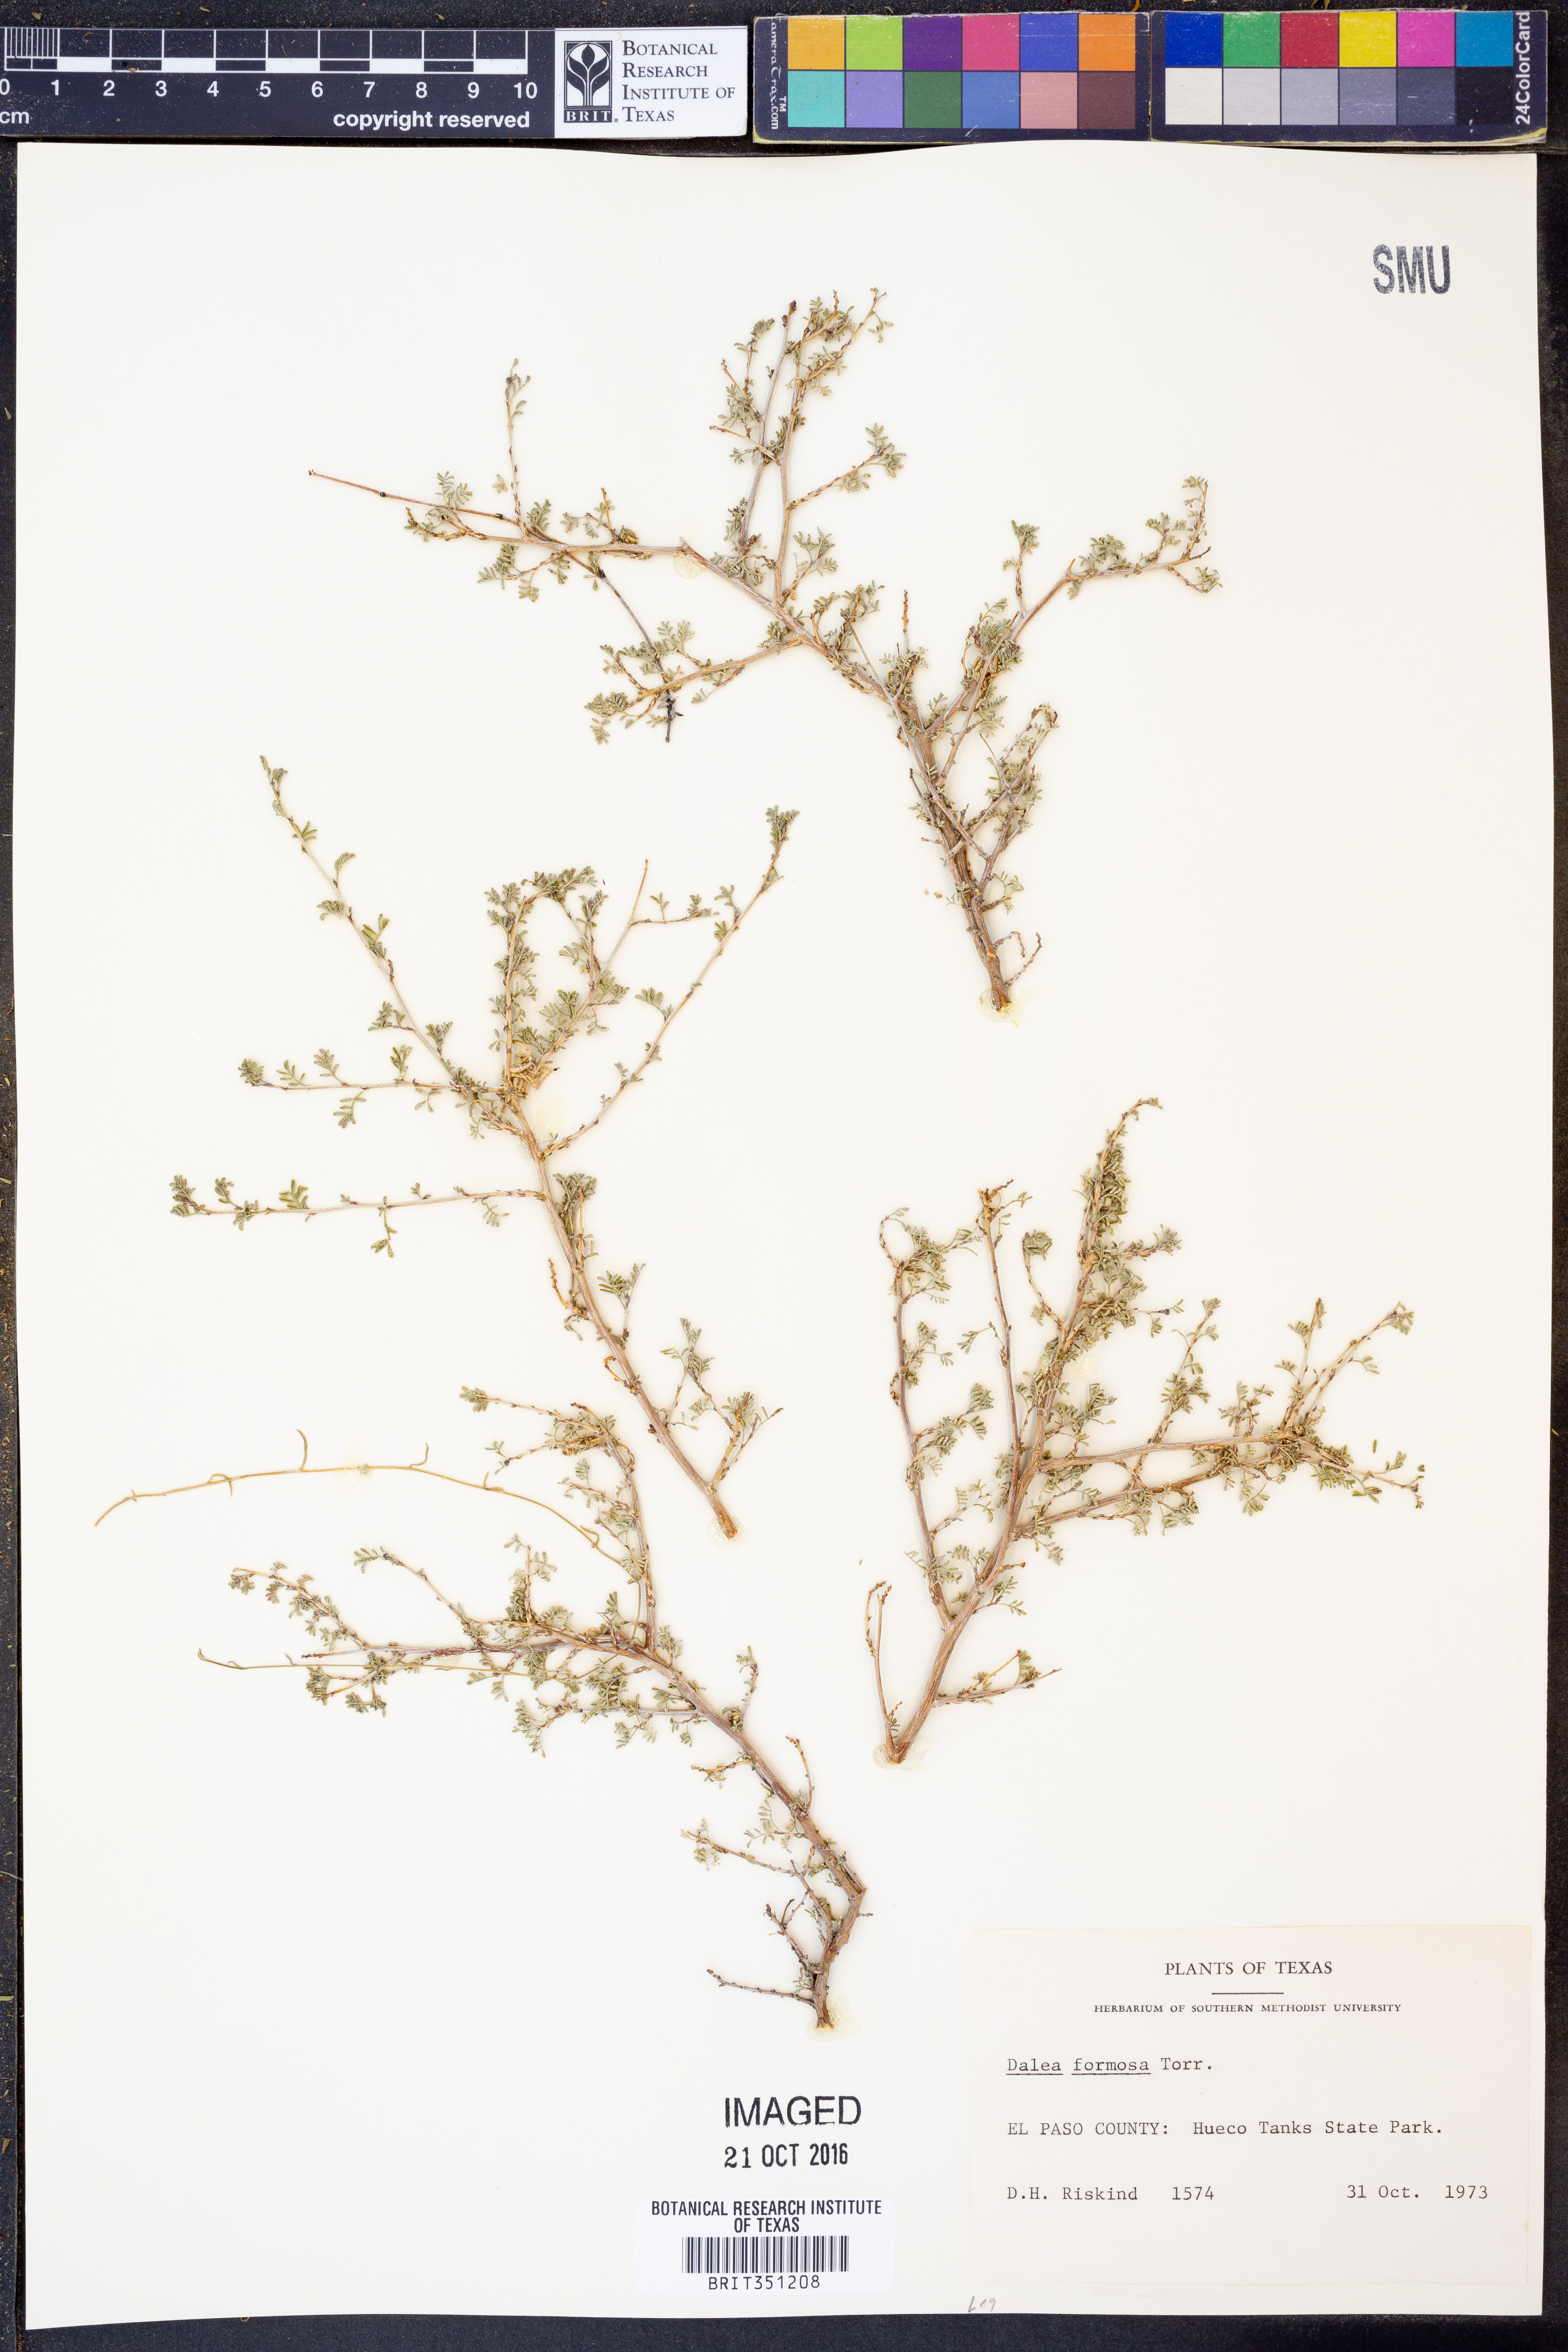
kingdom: Plantae
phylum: Tracheophyta
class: Magnoliopsida
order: Fabales
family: Fabaceae
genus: Dalea
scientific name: Dalea formosa
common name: Feather-plume dalea
